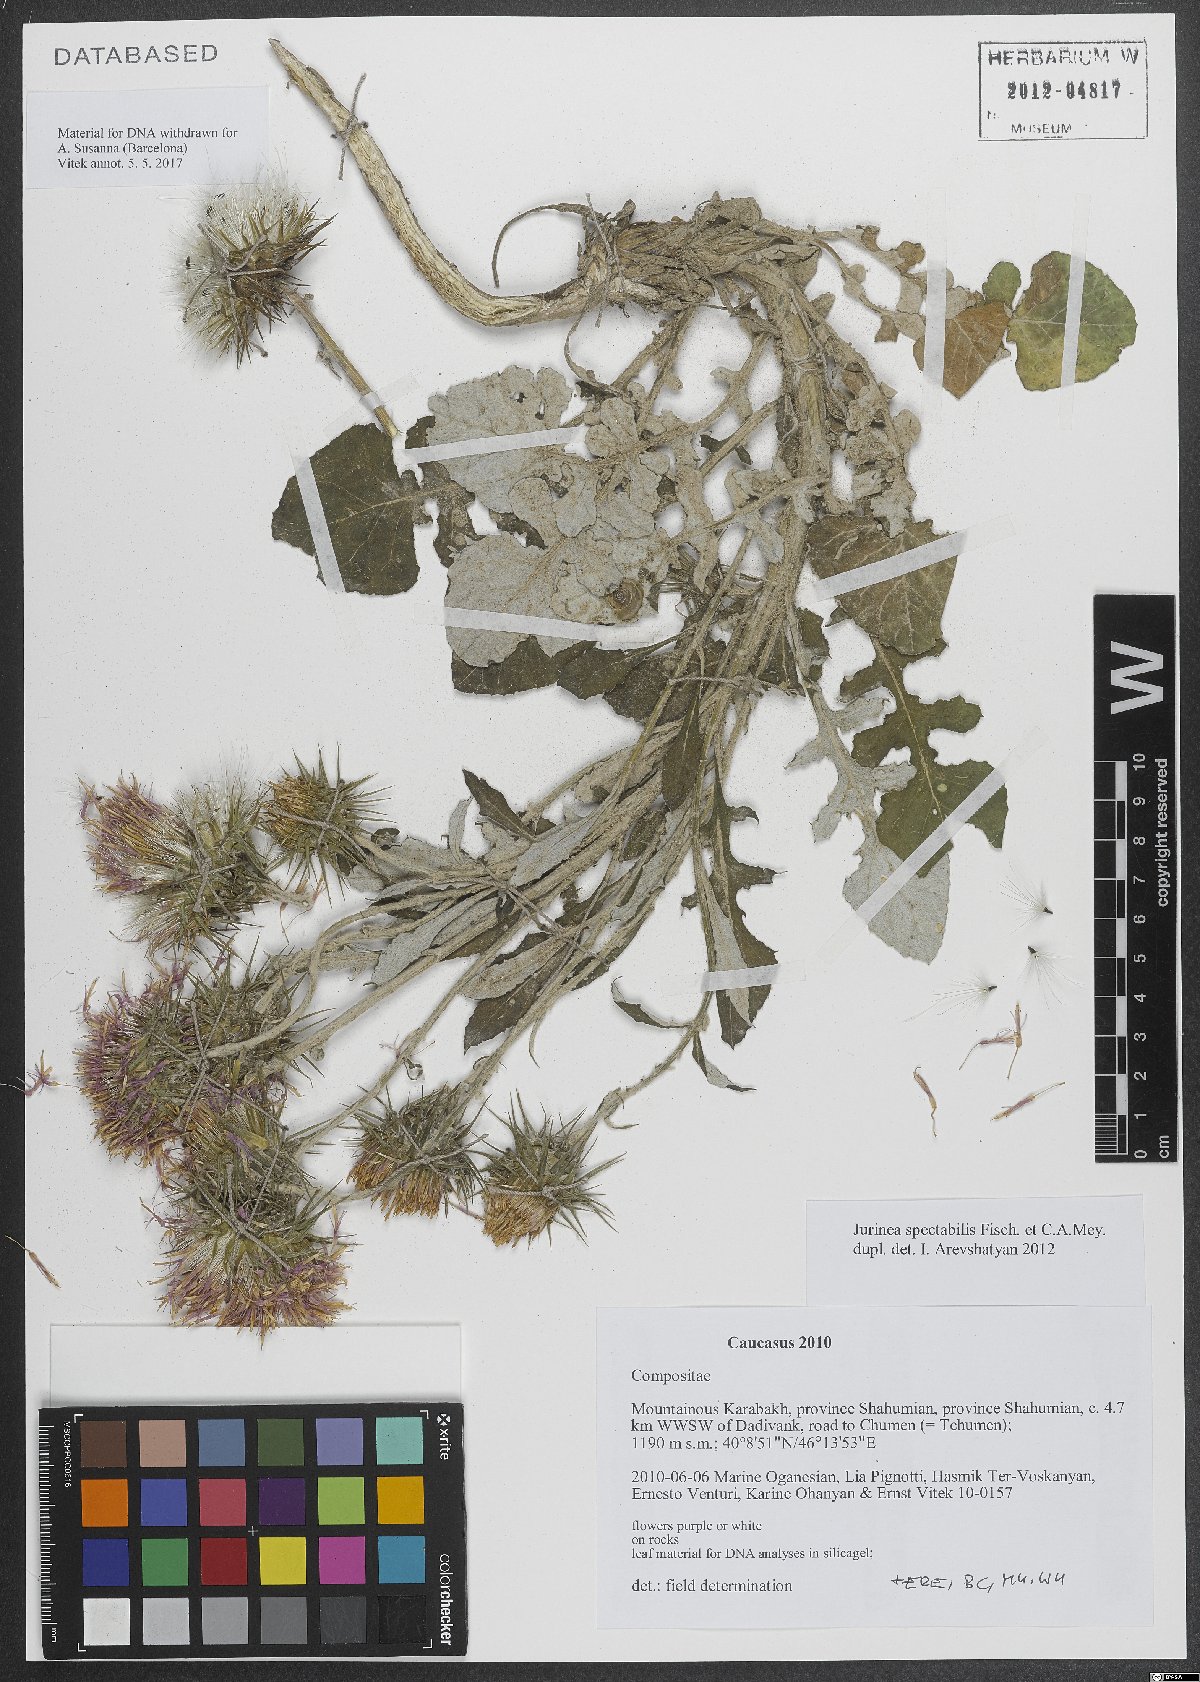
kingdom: Plantae
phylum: Tracheophyta
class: Magnoliopsida
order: Asterales
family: Asteraceae
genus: Jurinea
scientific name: Jurinea spectabilis
